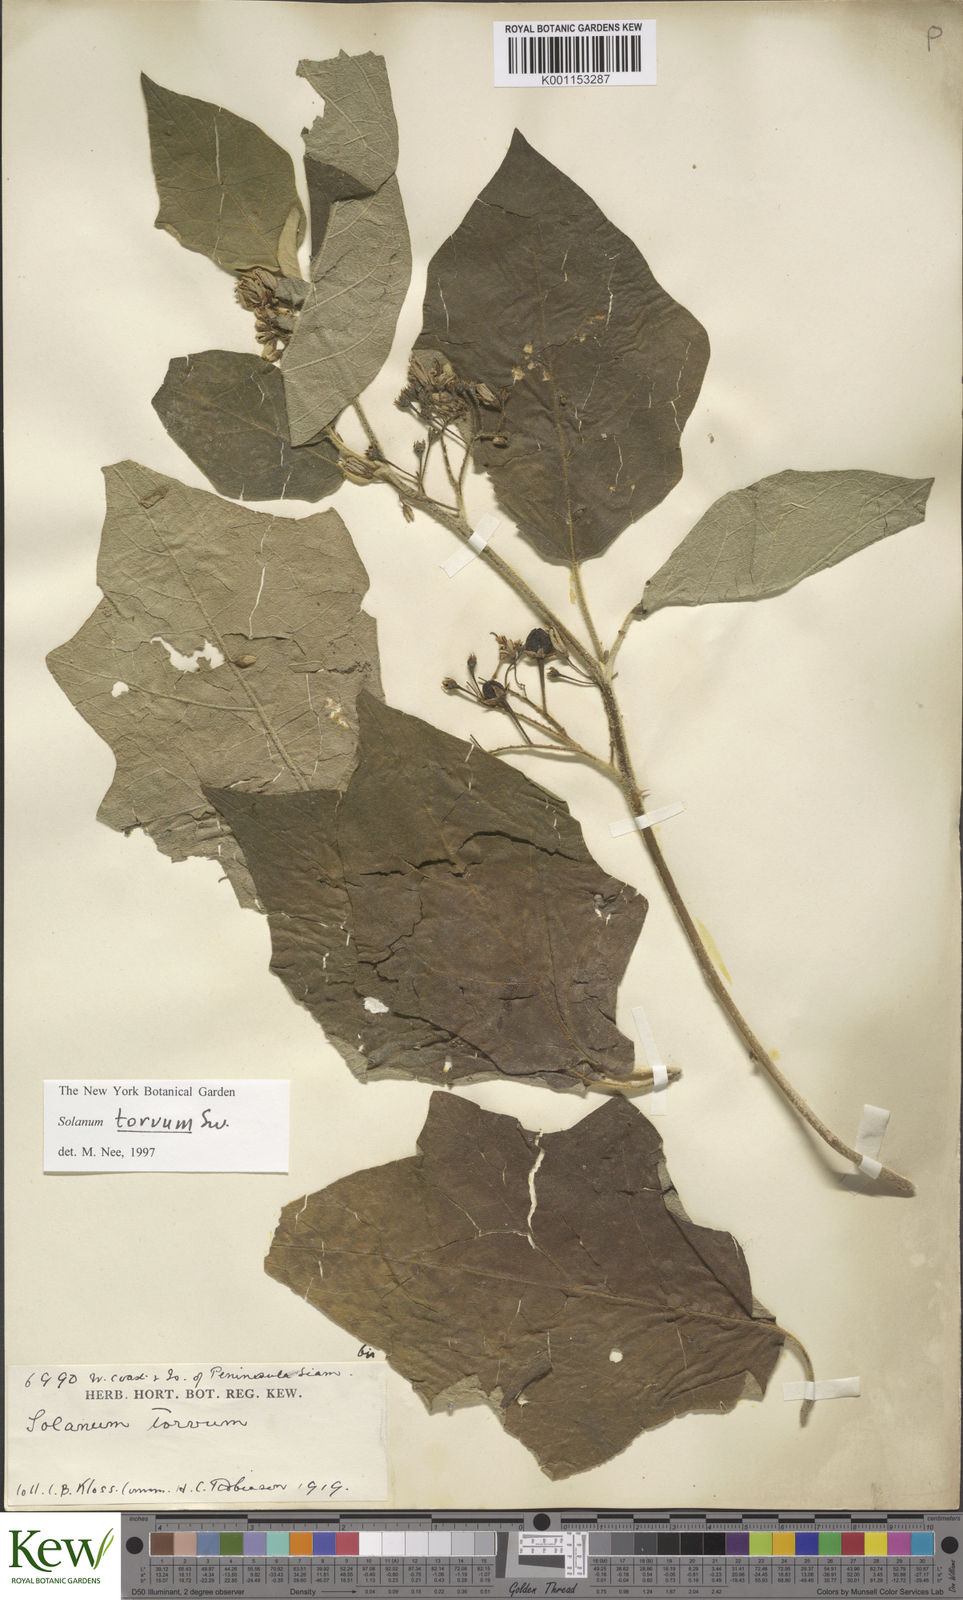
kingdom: Plantae
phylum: Tracheophyta
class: Magnoliopsida
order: Solanales
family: Solanaceae
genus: Solanum
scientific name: Solanum torvum
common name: Turkey berry
